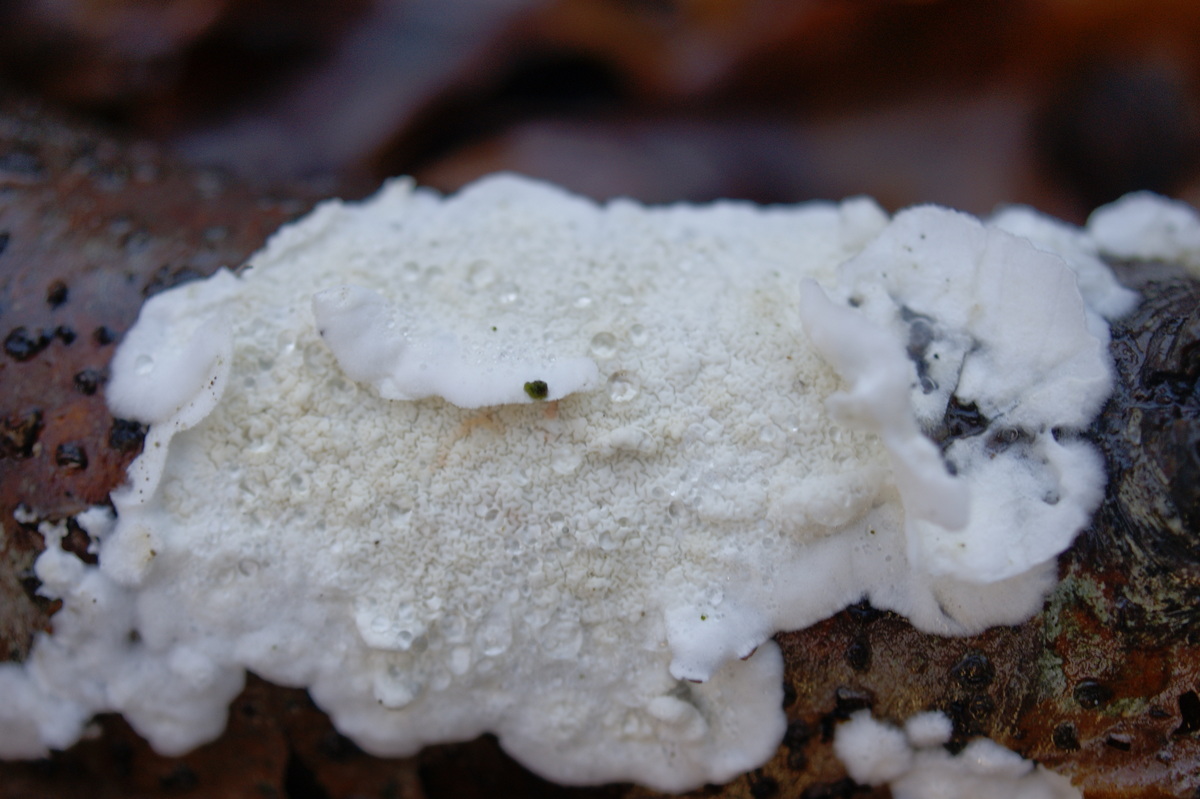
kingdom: Fungi
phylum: Basidiomycota
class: Agaricomycetes
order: Polyporales
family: Irpicaceae
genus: Byssomerulius
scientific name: Byssomerulius corium
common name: læder-åresvamp
